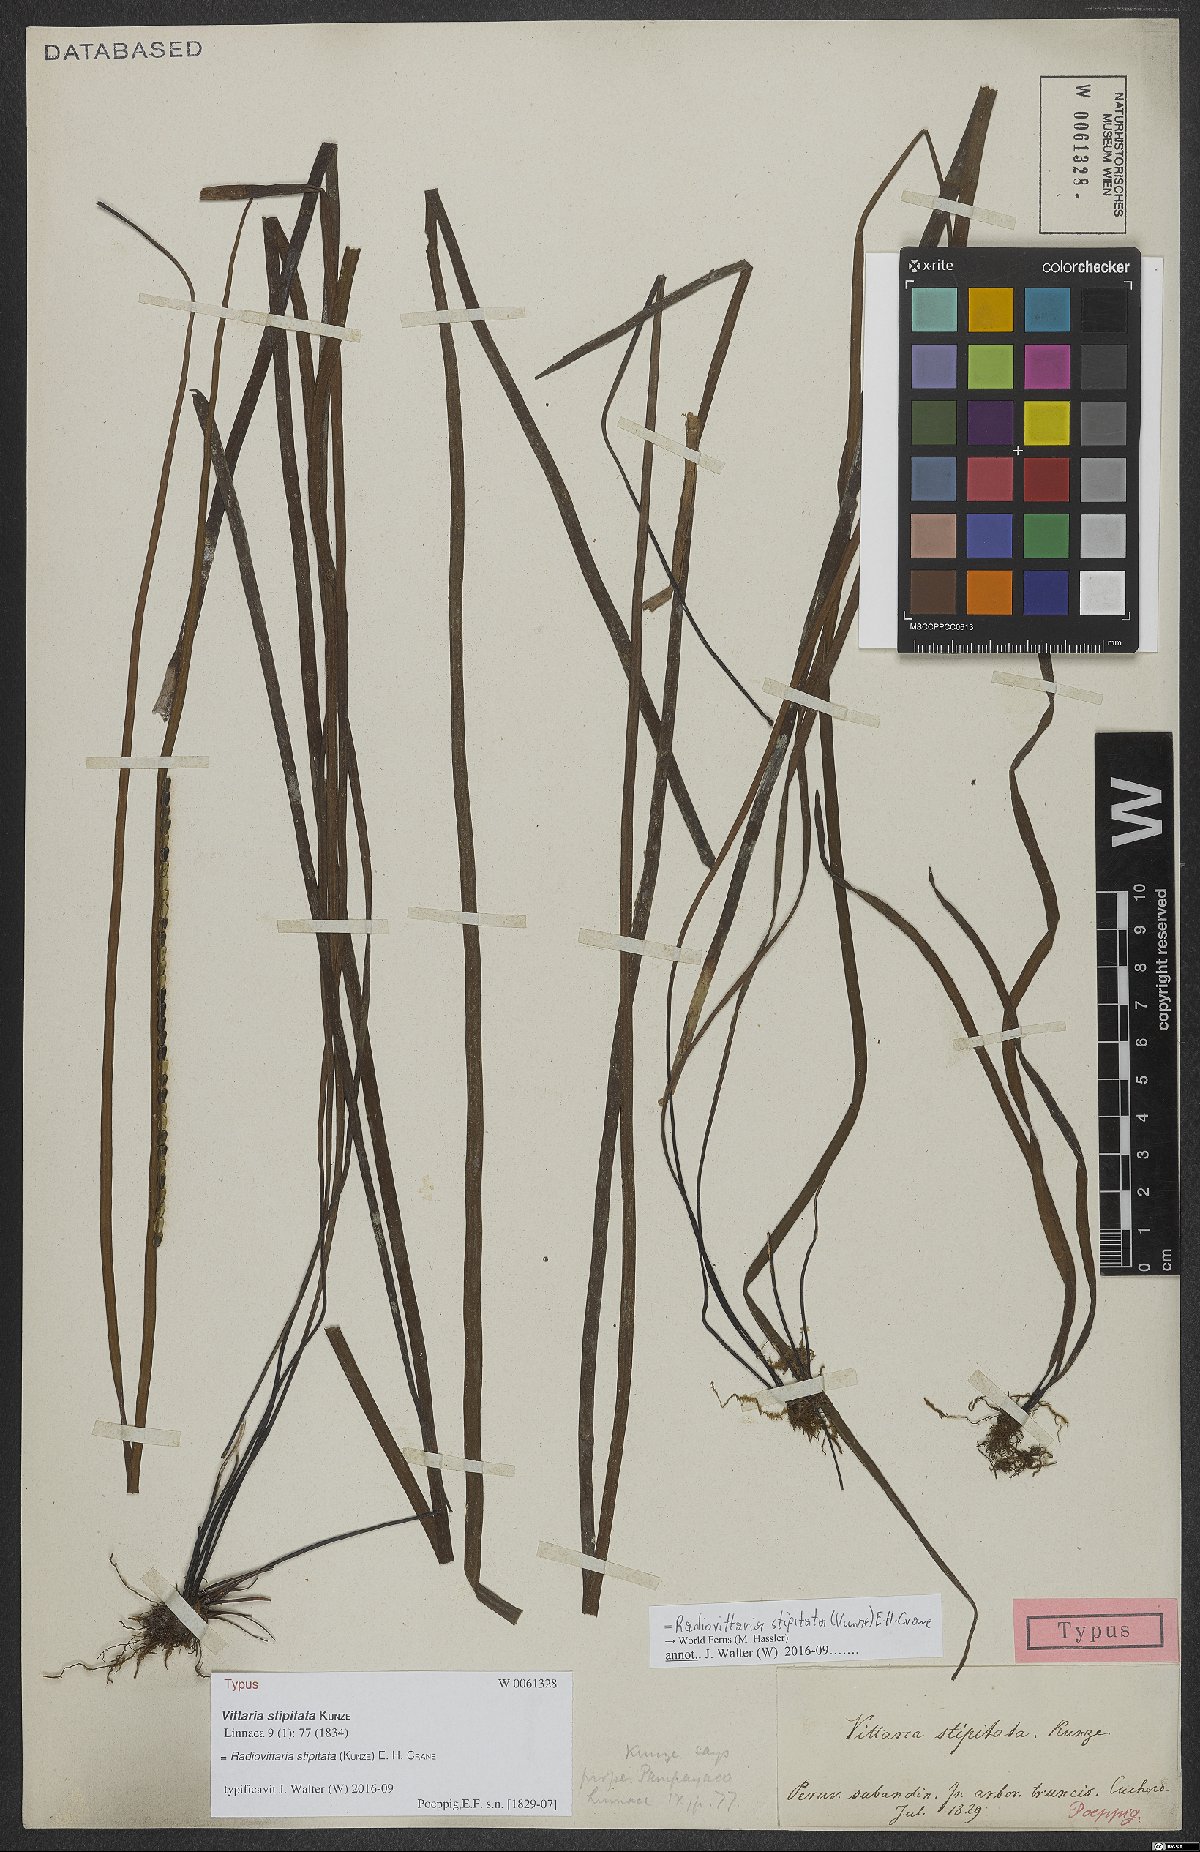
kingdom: Plantae
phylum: Tracheophyta
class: Polypodiopsida
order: Polypodiales
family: Pteridaceae
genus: Radiovittaria
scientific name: Radiovittaria stipitata
